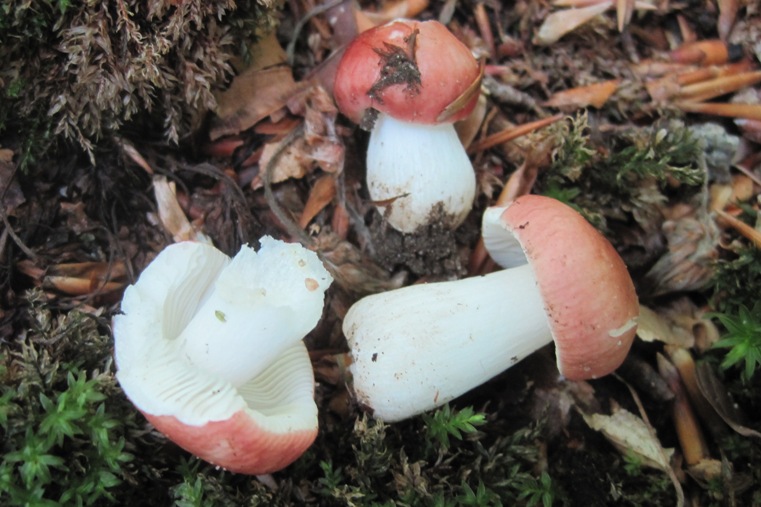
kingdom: Fungi
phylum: Basidiomycota
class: Agaricomycetes
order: Russulales
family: Russulaceae
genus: Russula
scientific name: Russula puellula
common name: gulnende skørhat
